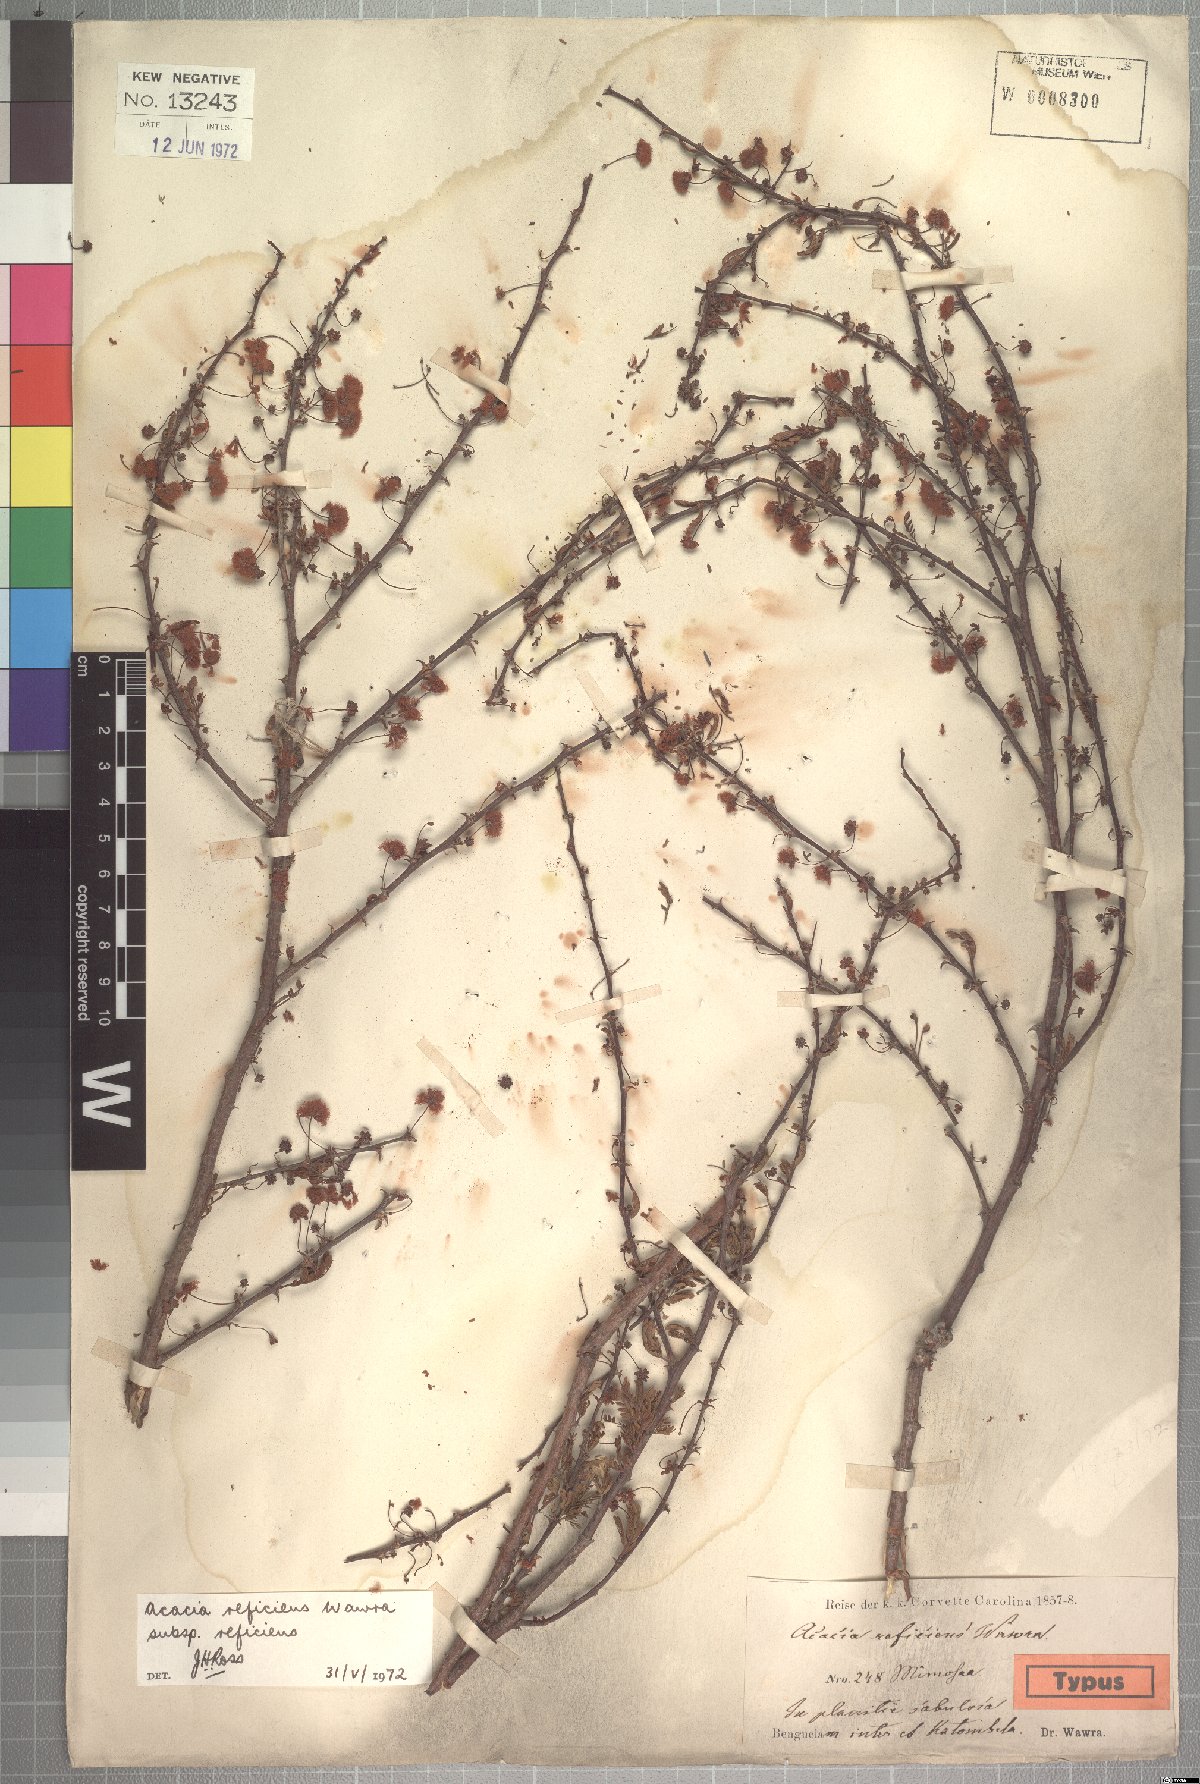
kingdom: Plantae
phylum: Tracheophyta
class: Magnoliopsida
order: Fabales
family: Fabaceae
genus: Vachellia
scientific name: Vachellia reficiens
